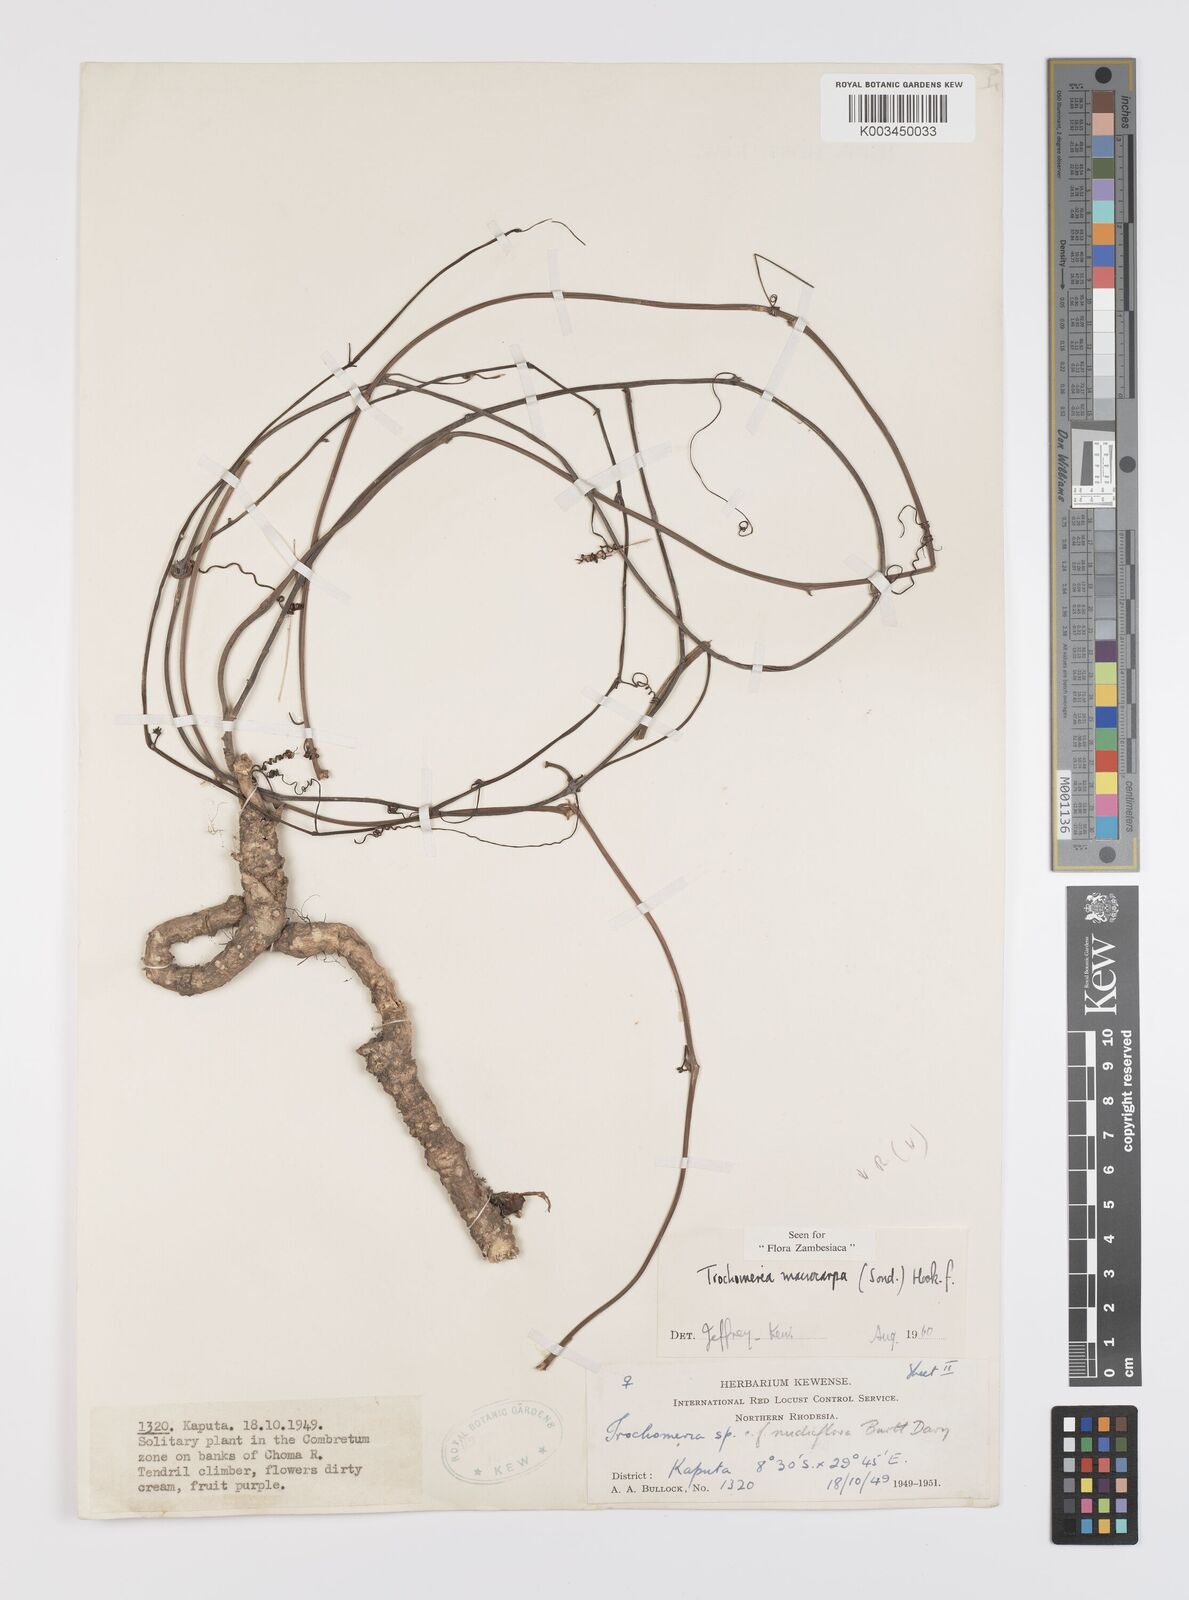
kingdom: Plantae
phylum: Tracheophyta
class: Magnoliopsida
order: Cucurbitales
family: Cucurbitaceae
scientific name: Cucurbitaceae
